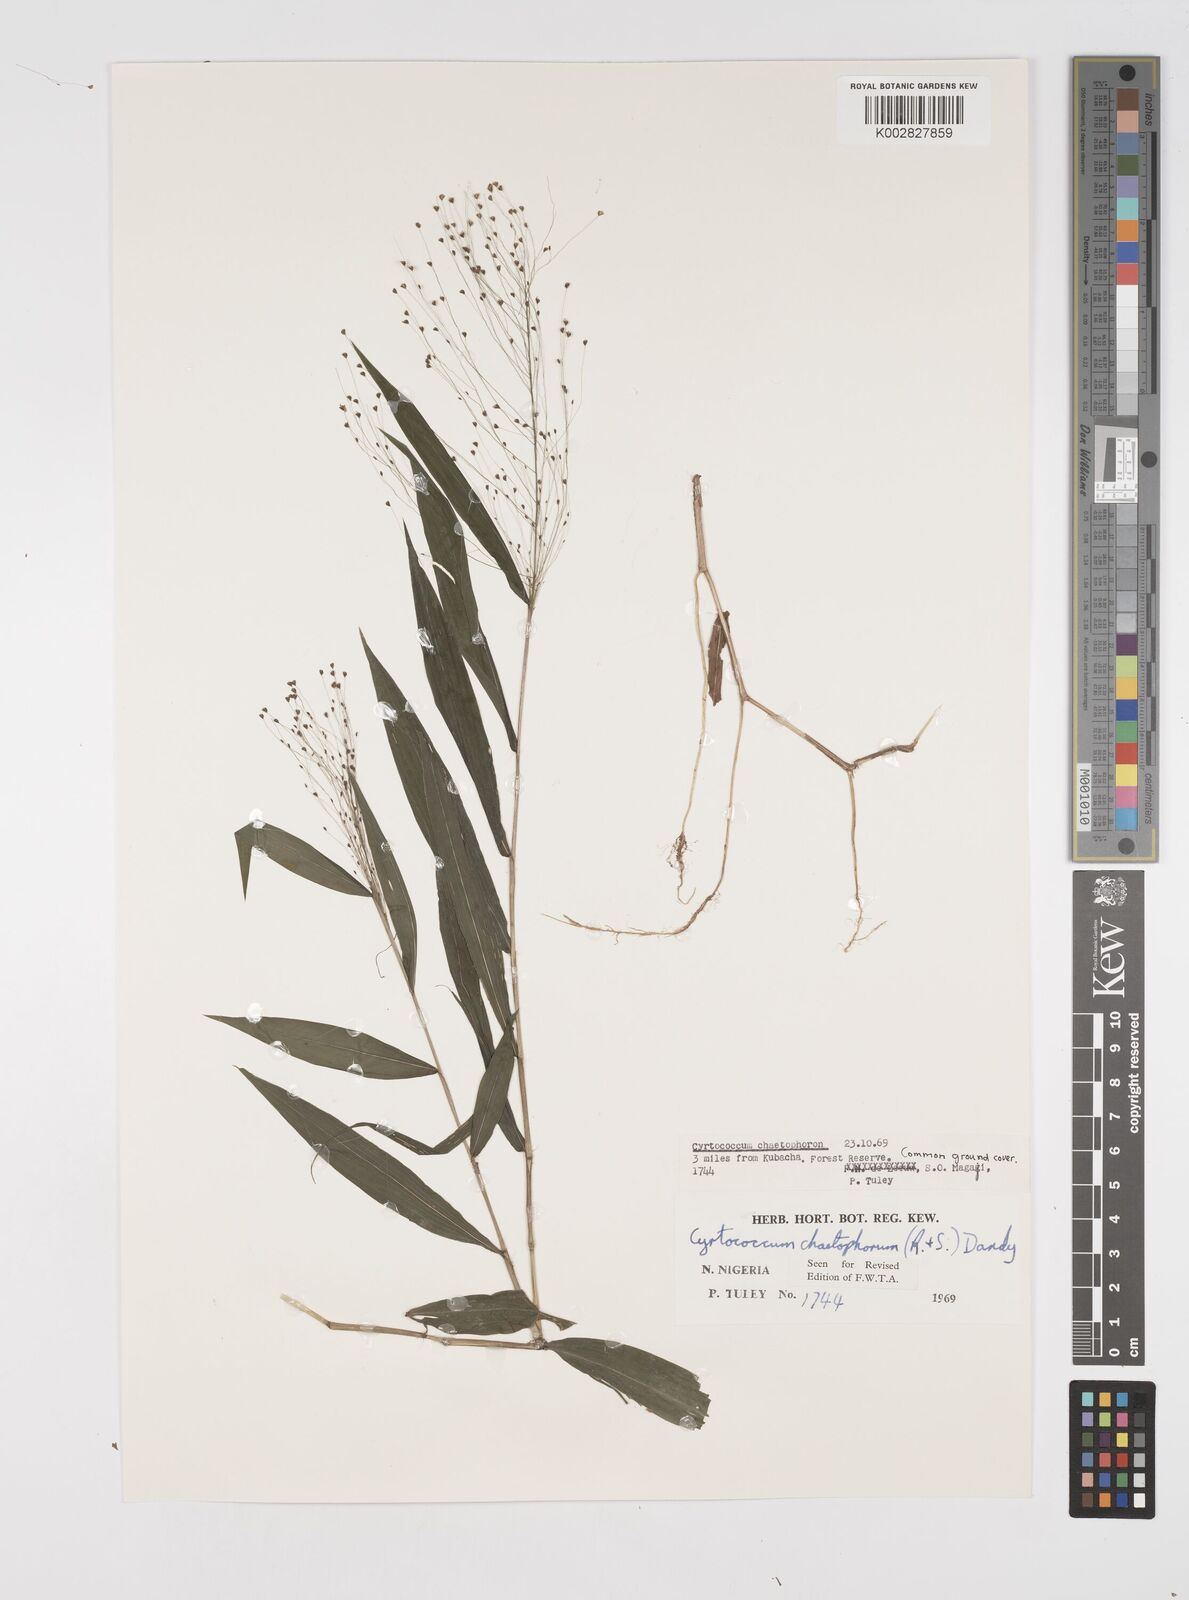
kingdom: Plantae
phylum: Tracheophyta
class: Liliopsida
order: Poales
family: Poaceae
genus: Cyrtococcum
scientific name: Cyrtococcum chaetophoron
